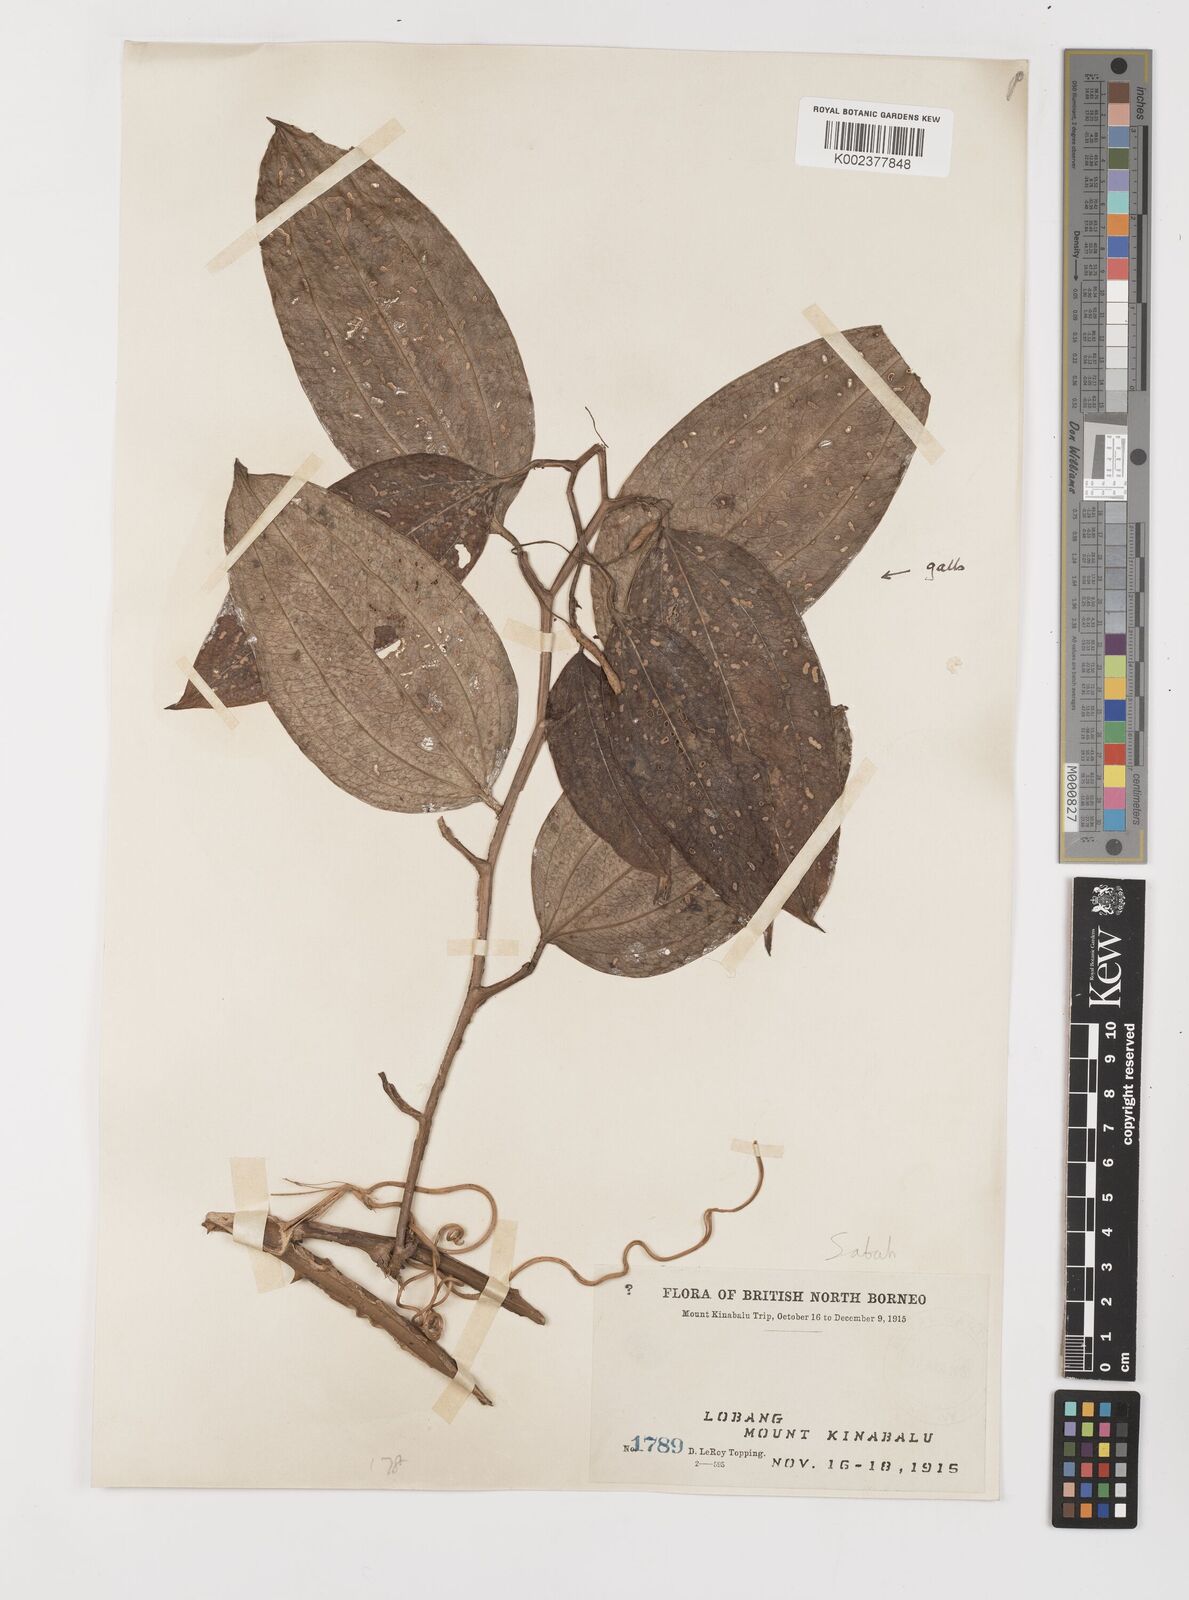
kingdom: Plantae
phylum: Tracheophyta
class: Liliopsida
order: Liliales
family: Smilacaceae
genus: Smilax
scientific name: Smilax
